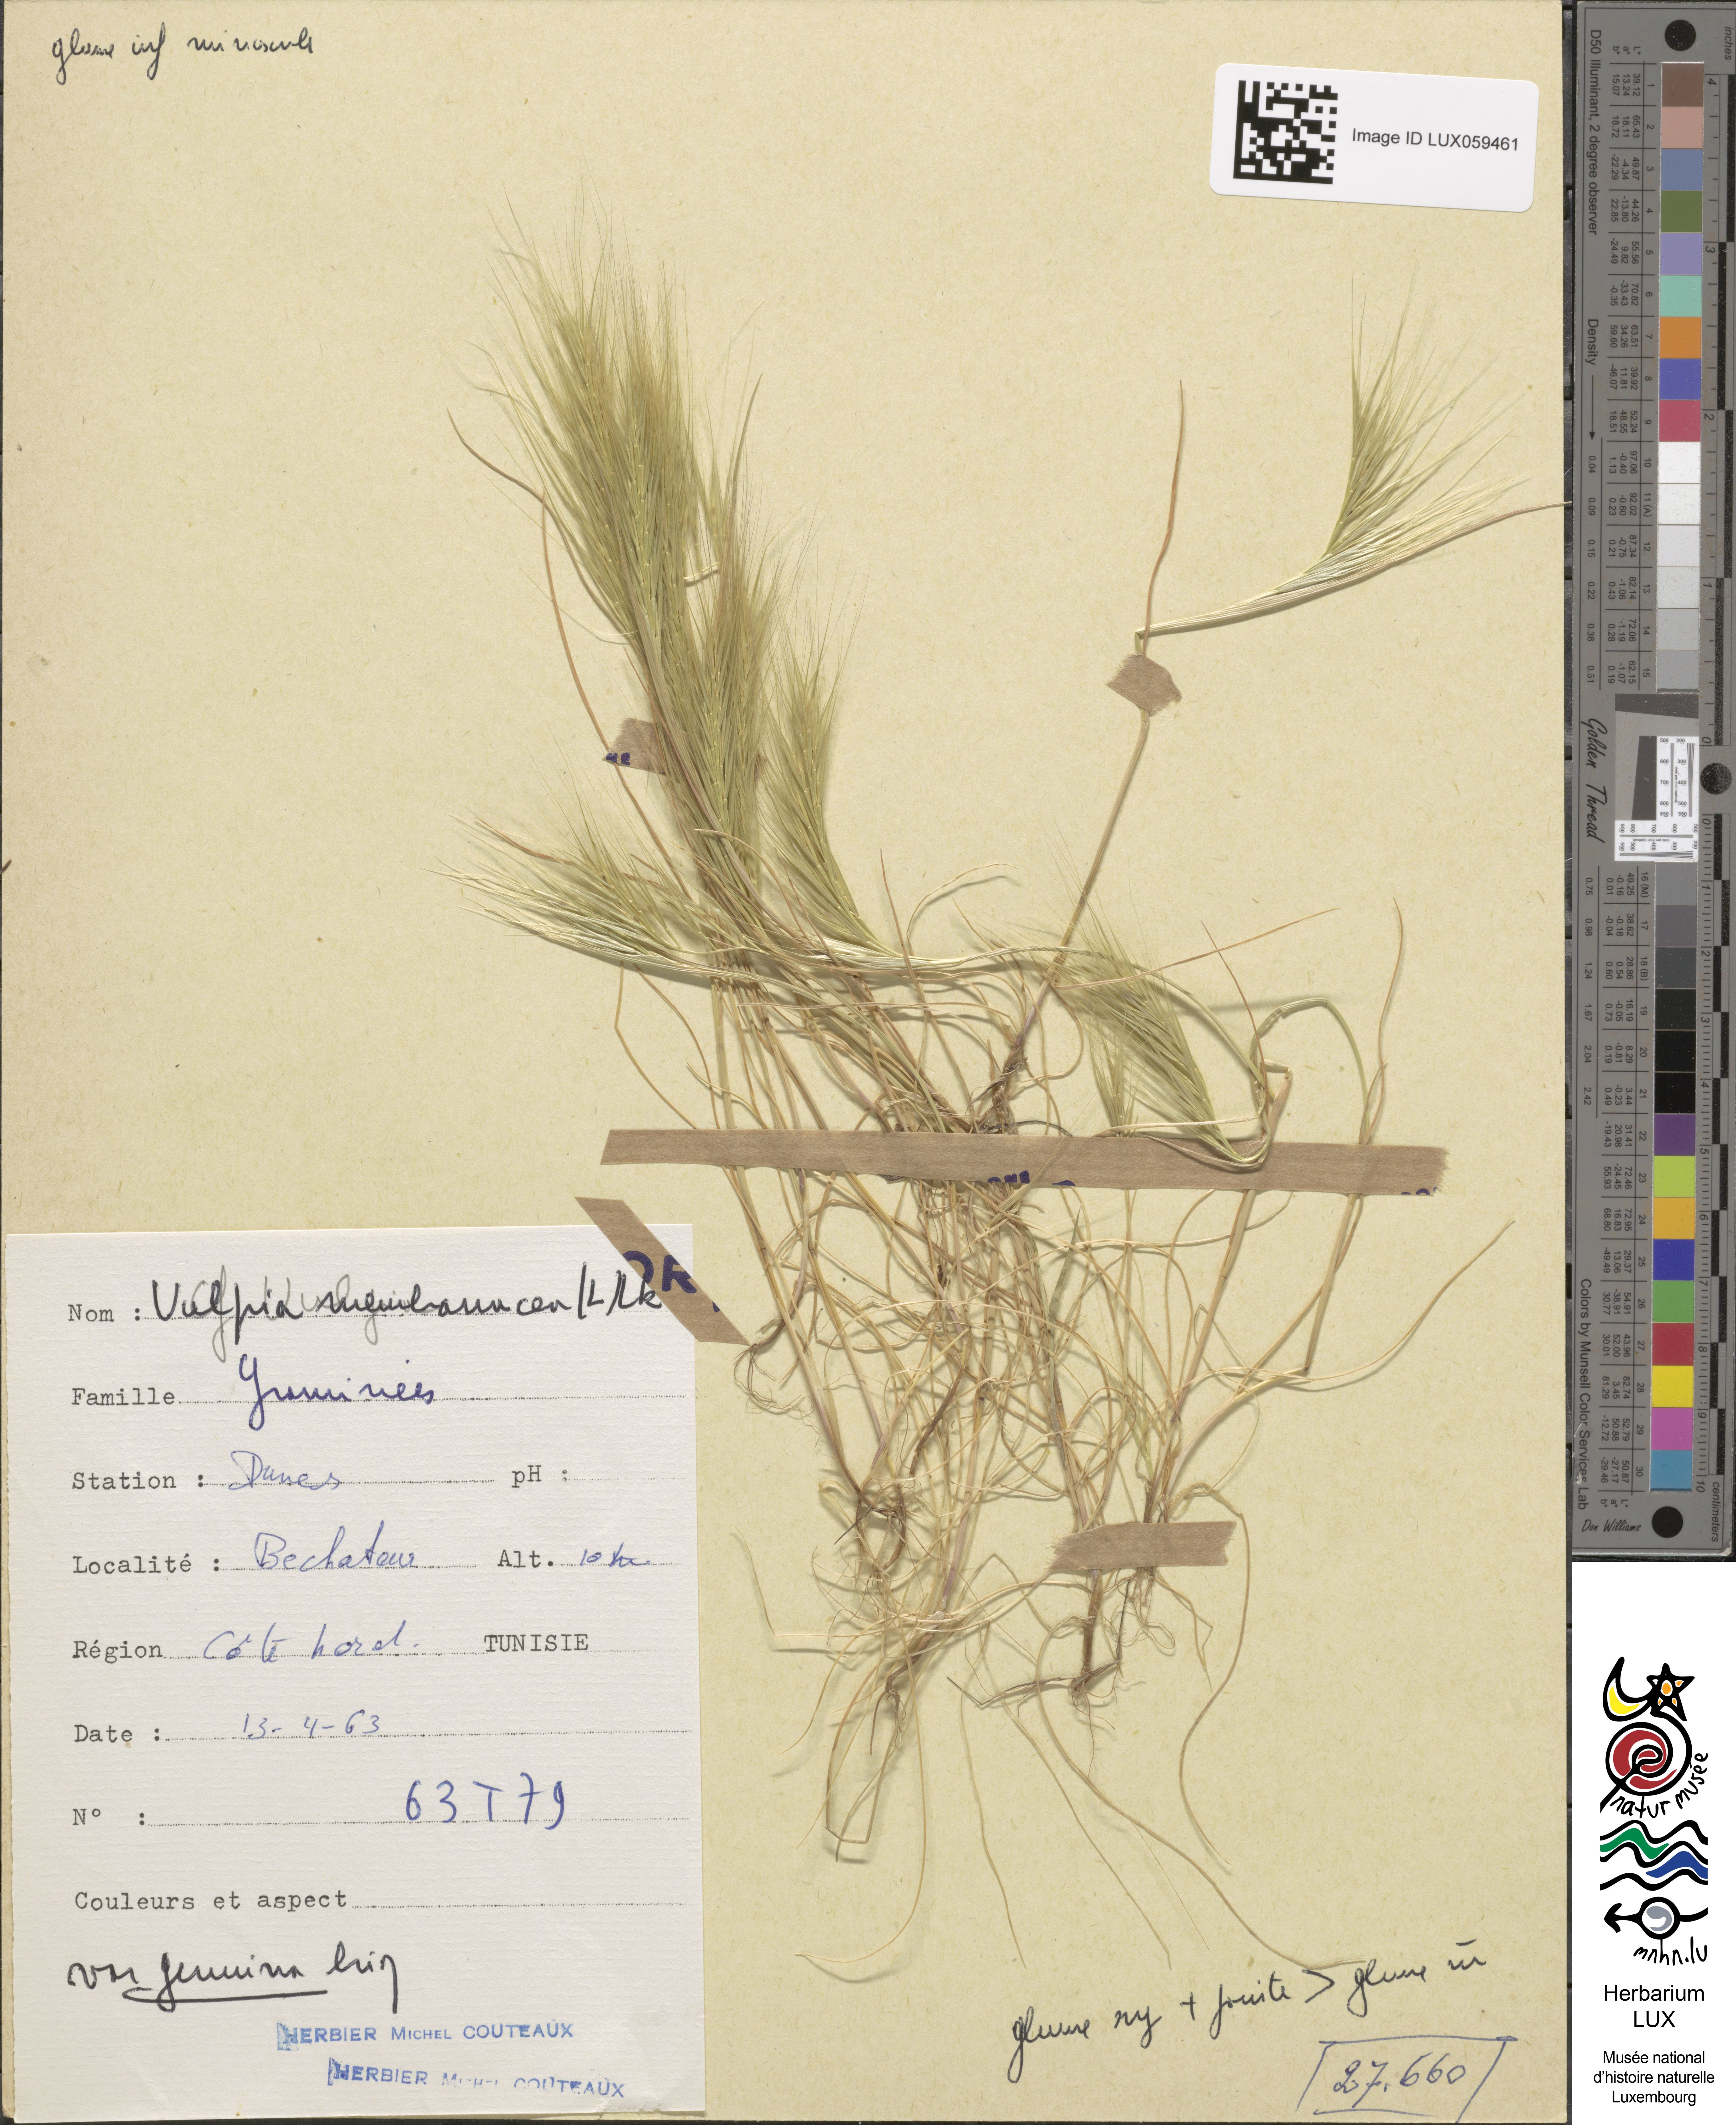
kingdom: Plantae
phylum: Tracheophyta
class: Liliopsida
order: Poales
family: Poaceae
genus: Festuca
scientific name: Festuca membranacea
